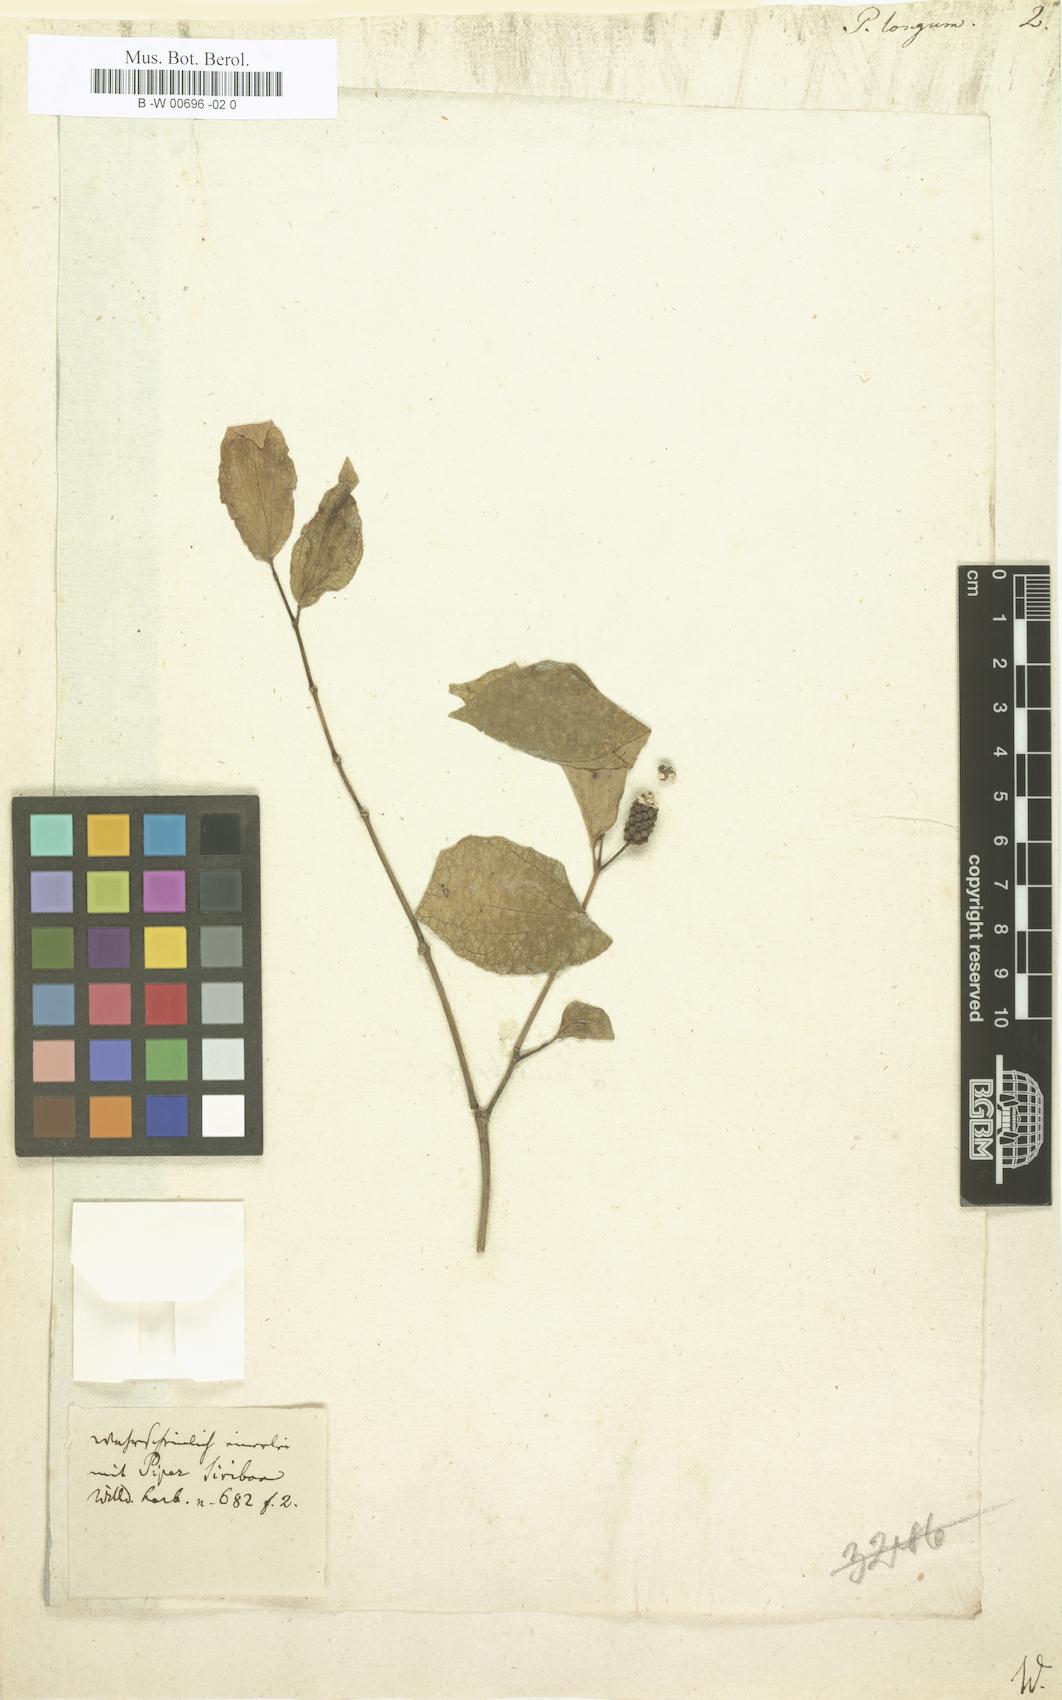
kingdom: Plantae
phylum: Tracheophyta
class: Magnoliopsida
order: Piperales
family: Piperaceae
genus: Piper
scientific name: Piper longum
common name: Long pepper
